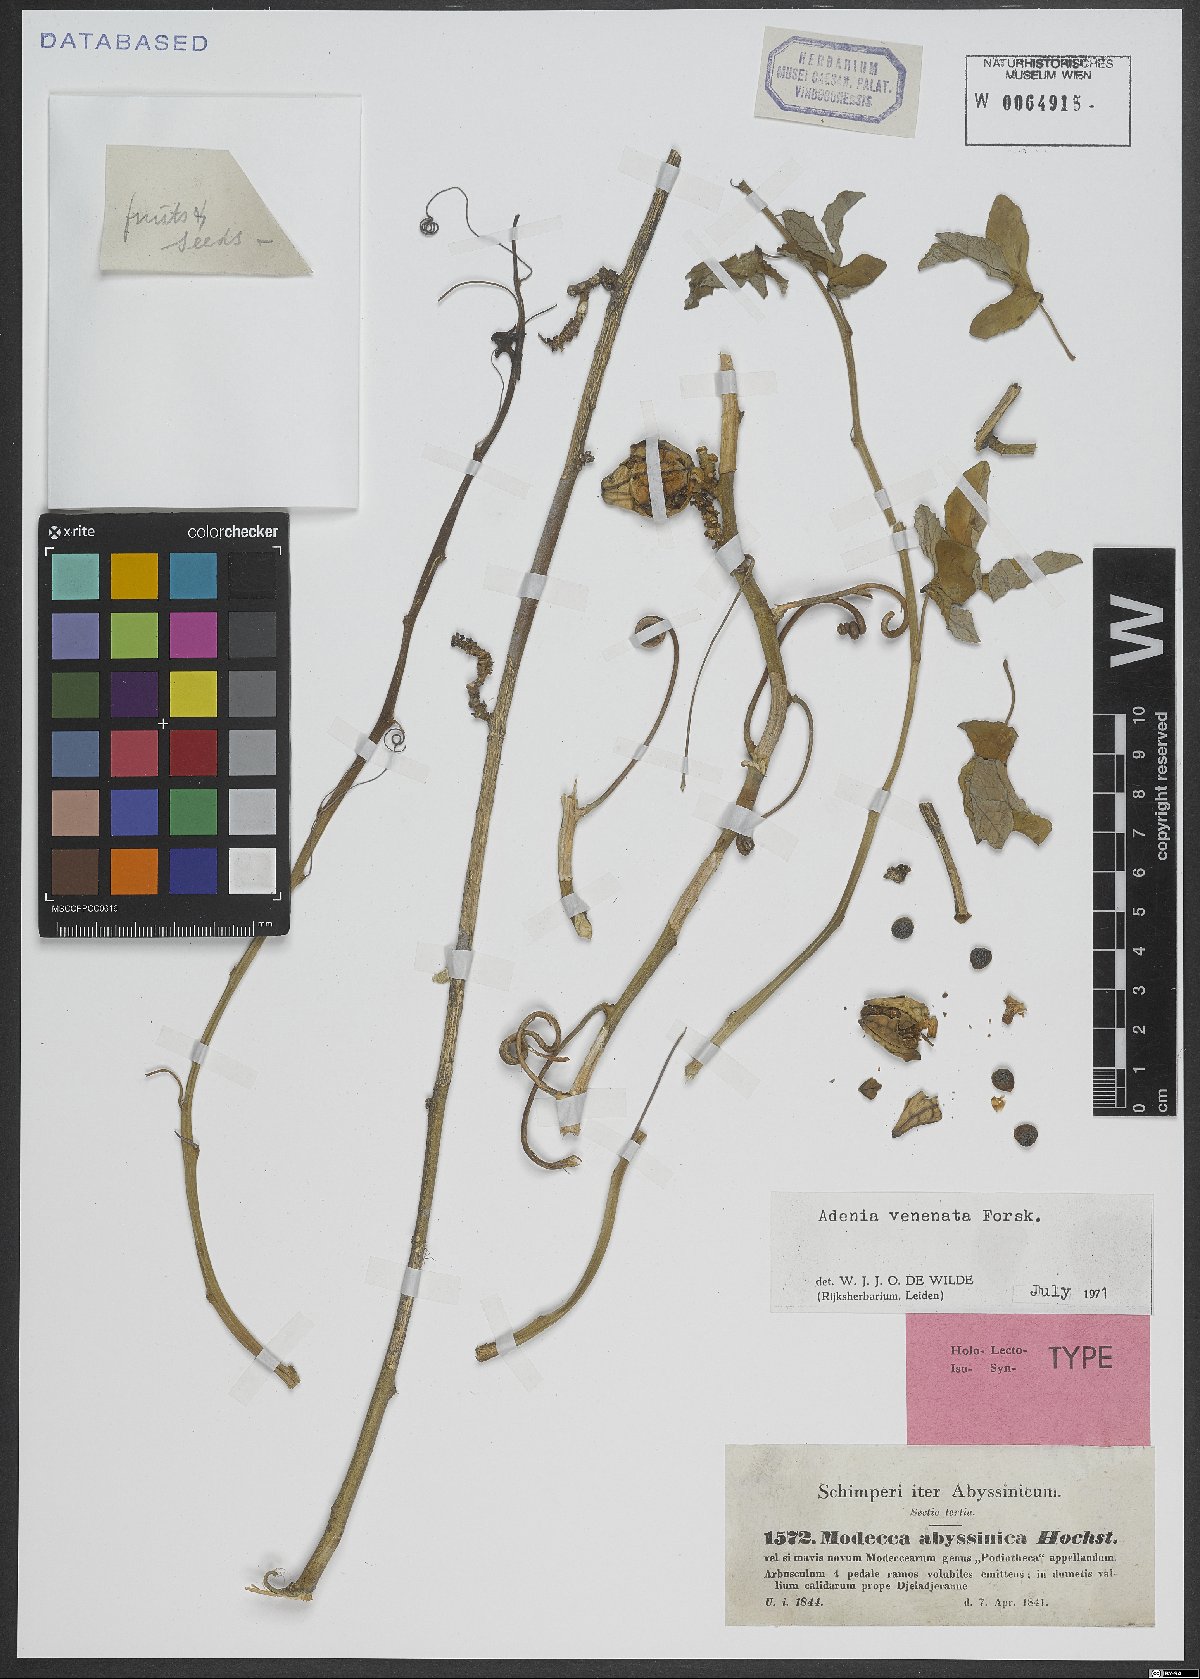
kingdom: Plantae
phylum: Tracheophyta
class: Magnoliopsida
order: Malpighiales
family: Passifloraceae
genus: Adenia
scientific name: Adenia venenata
